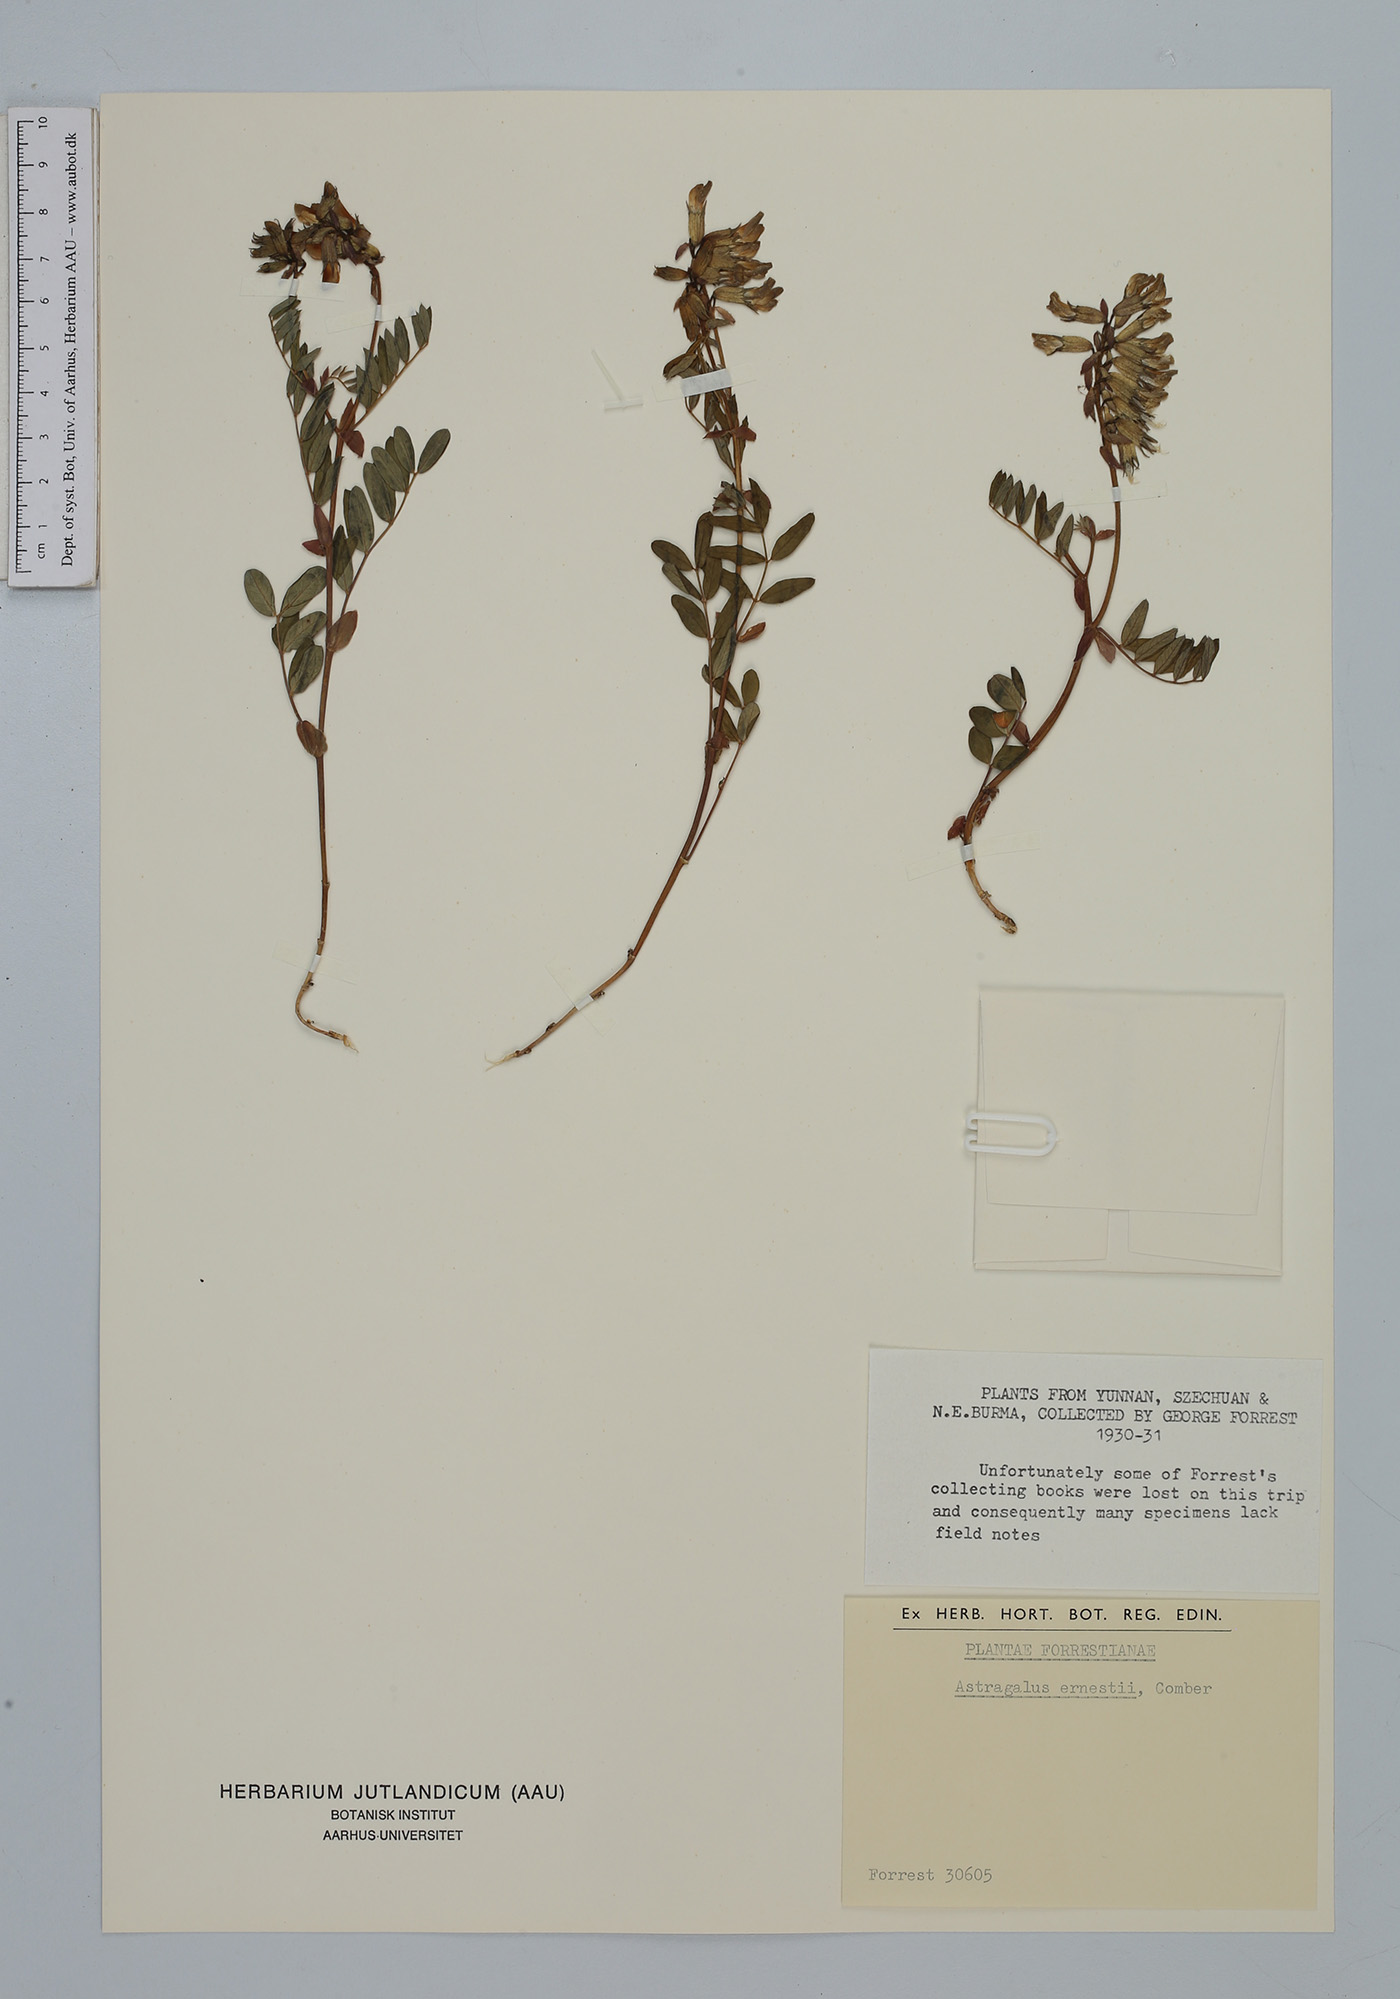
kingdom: Plantae
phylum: Tracheophyta
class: Magnoliopsida
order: Fabales
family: Fabaceae
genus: Astragalus
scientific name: Astragalus ernestii
